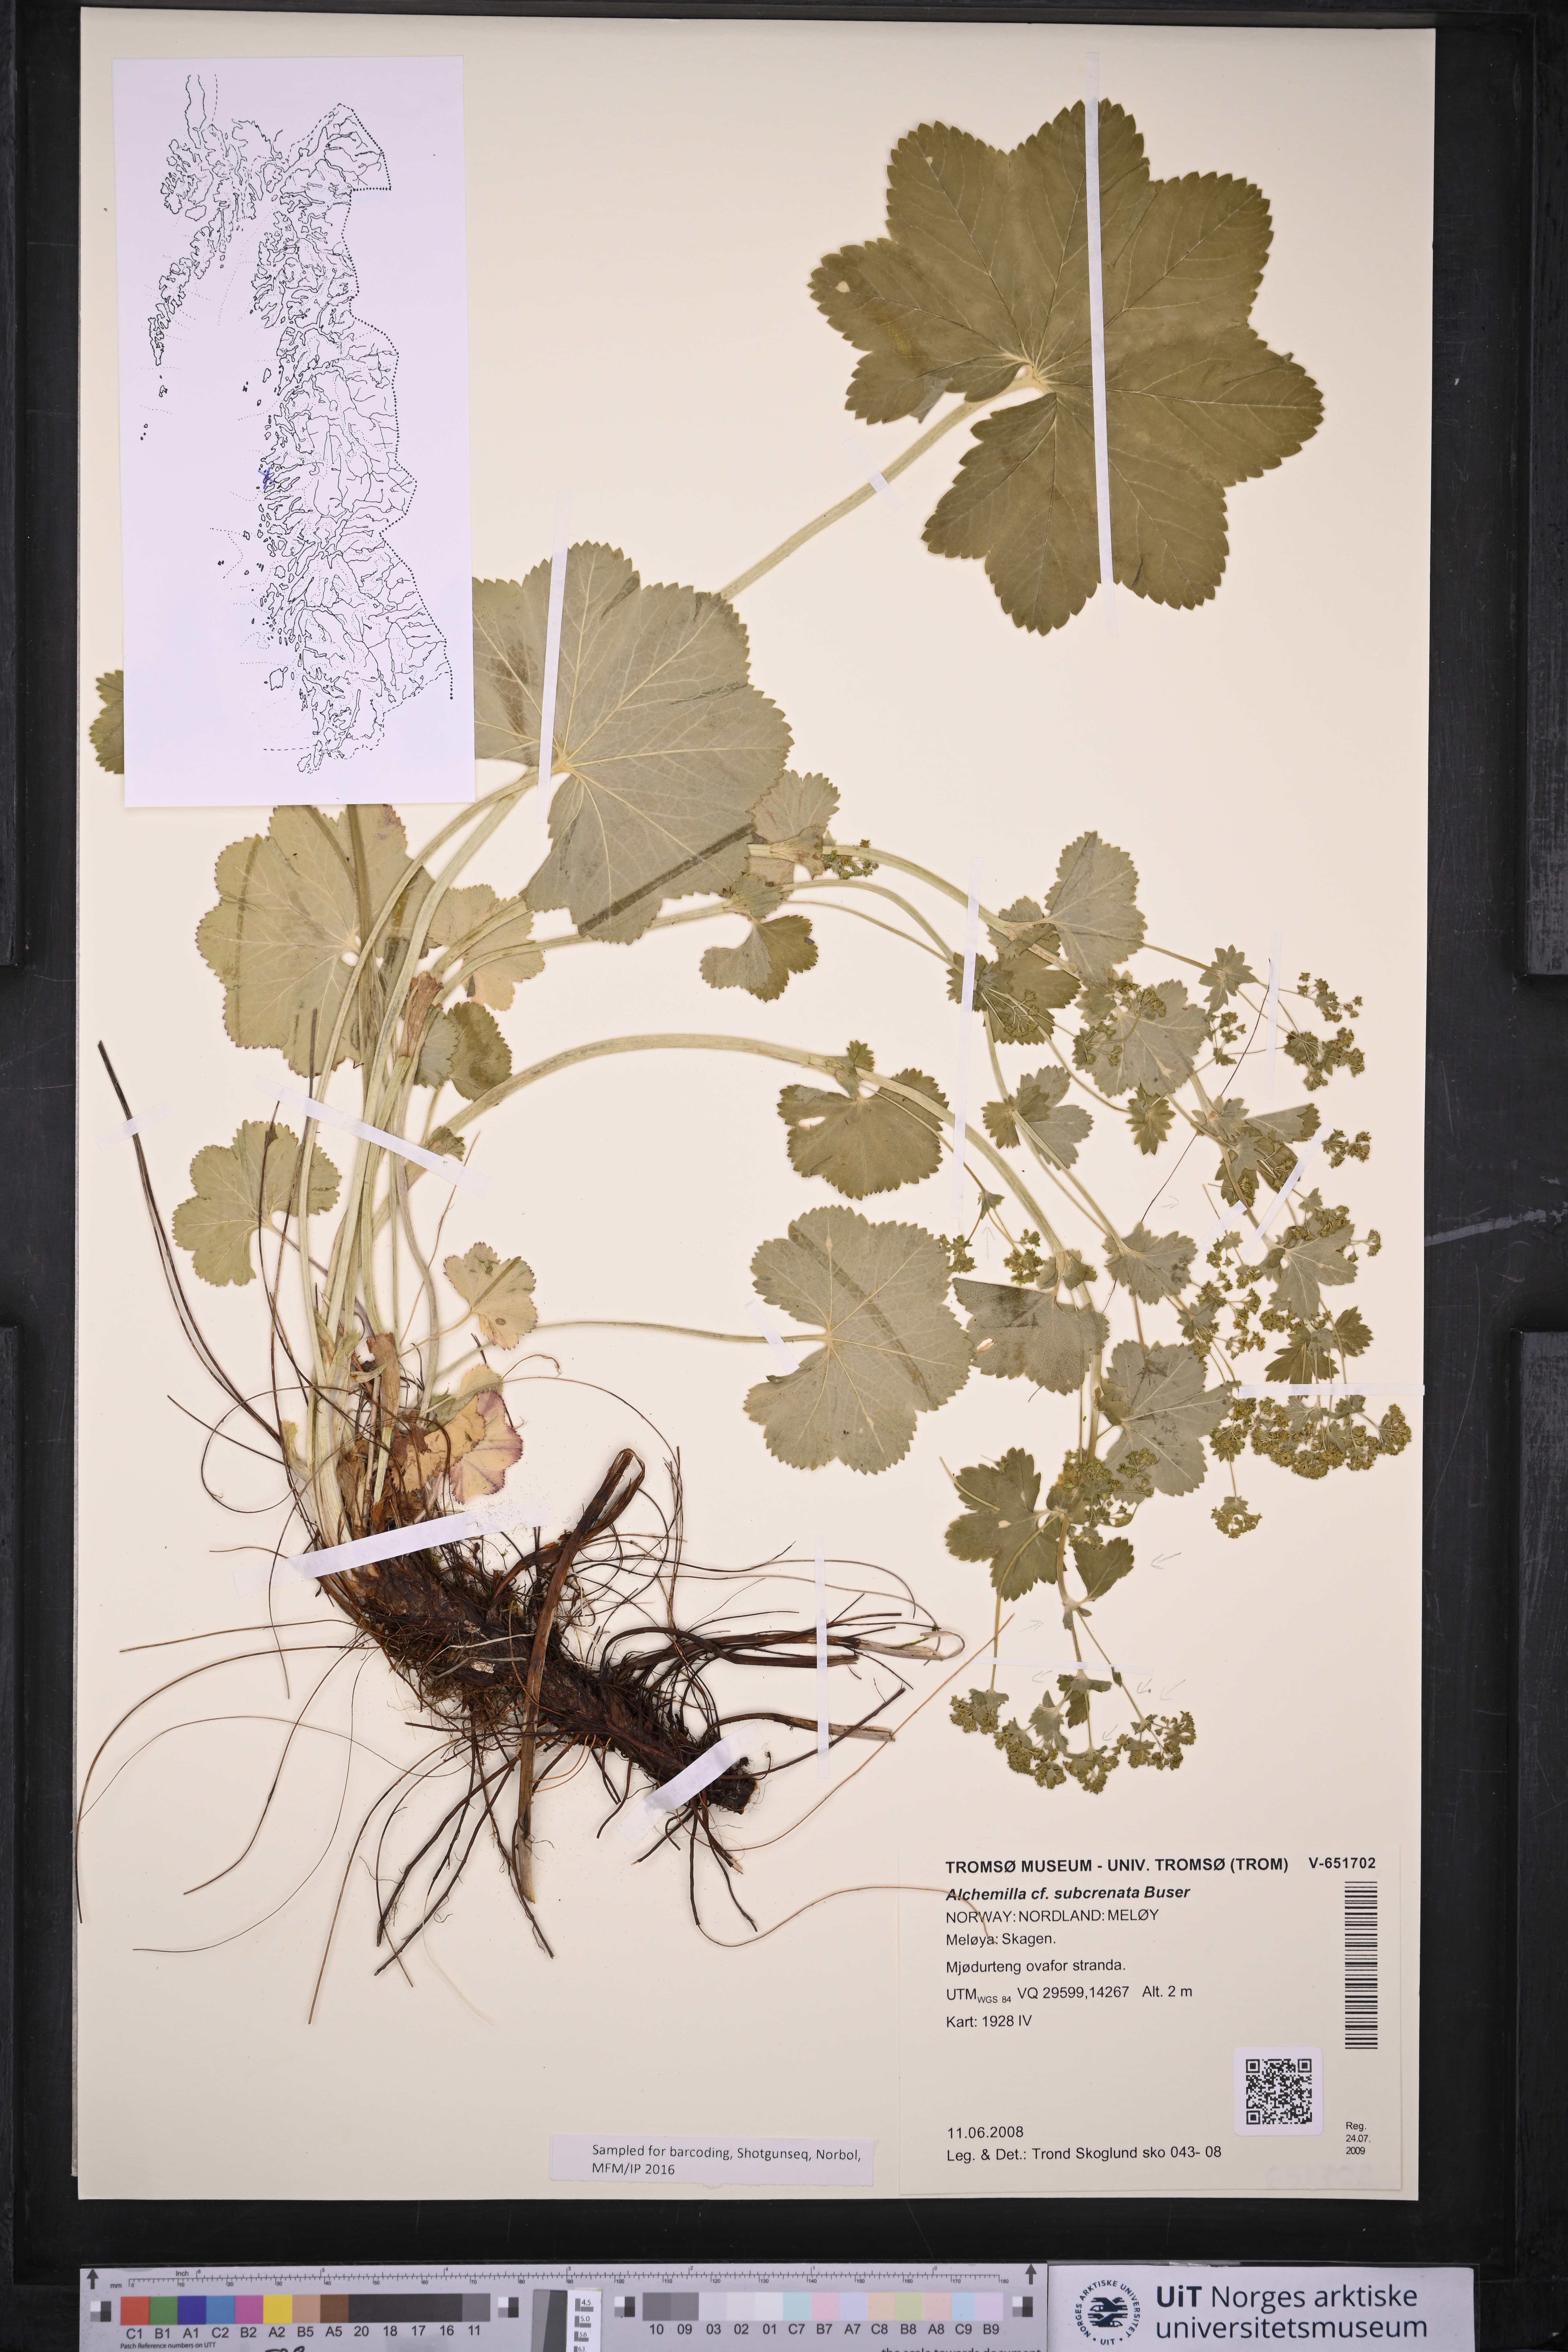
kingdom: Plantae
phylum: Tracheophyta
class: Magnoliopsida
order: Rosales
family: Rosaceae
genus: Alchemilla
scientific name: Alchemilla subcrenata
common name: Broadtooth lady's mantle
